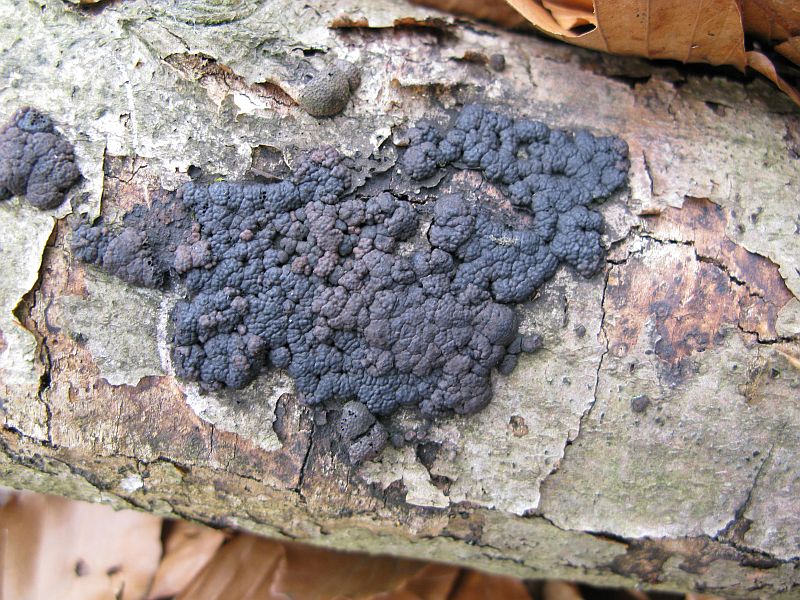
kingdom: Fungi
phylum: Ascomycota
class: Sordariomycetes
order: Xylariales
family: Hypoxylaceae
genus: Jackrogersella
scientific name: Jackrogersella cohaerens
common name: sammenflydende kulbær
